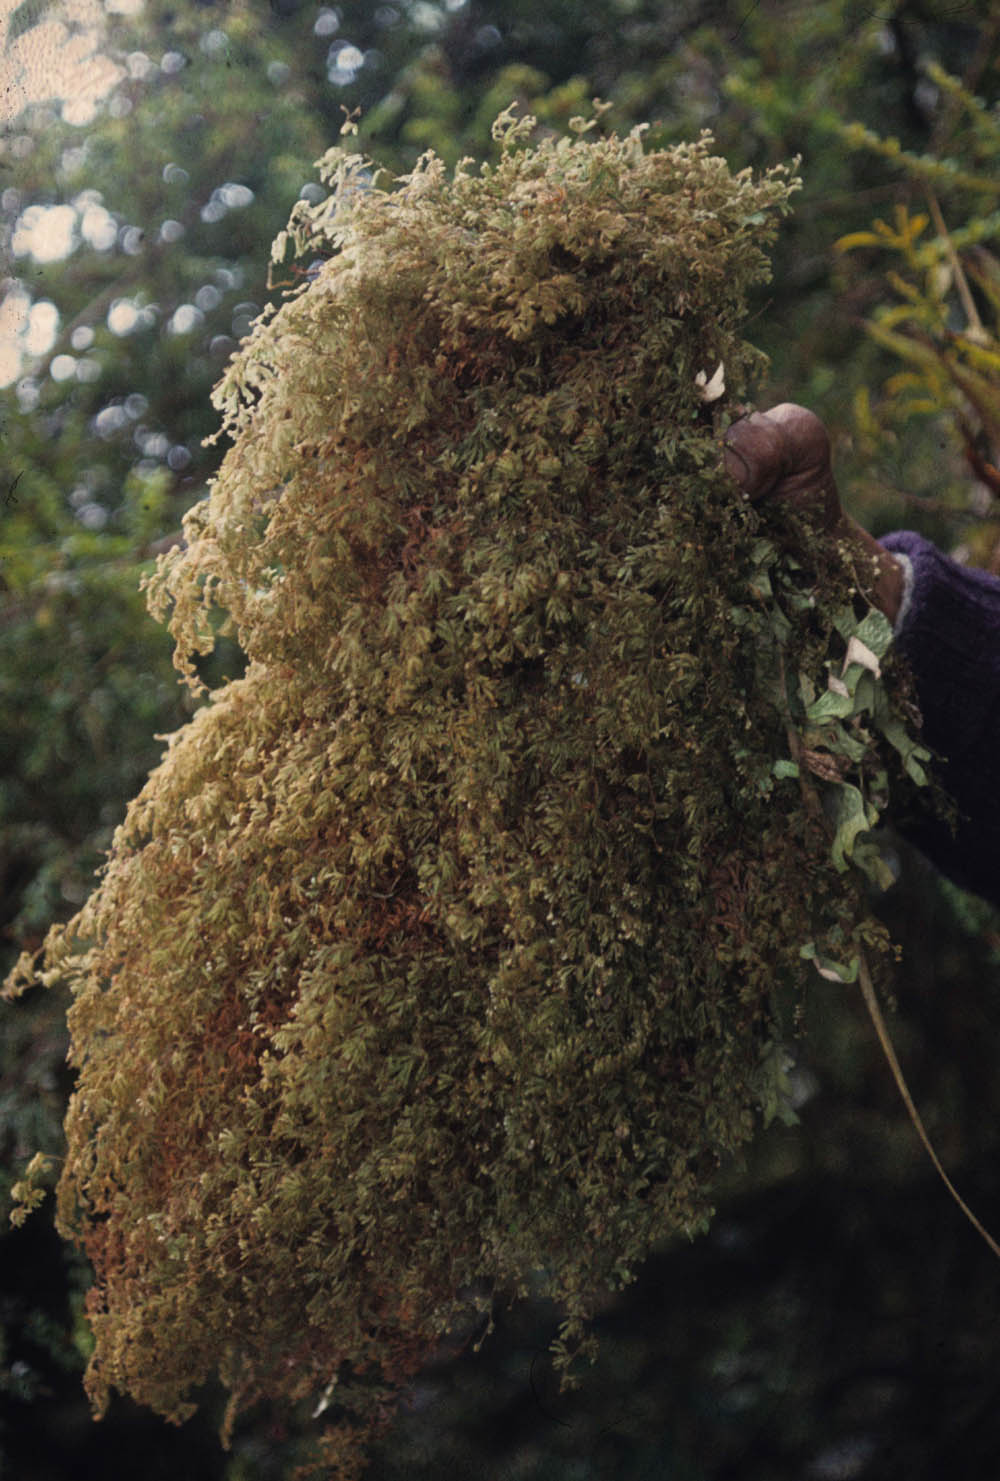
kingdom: Plantae
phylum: Tracheophyta
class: Polypodiopsida
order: Hymenophyllales
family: Hymenophyllaceae
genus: Hymenophyllum
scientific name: Hymenophyllum trichophyllum
